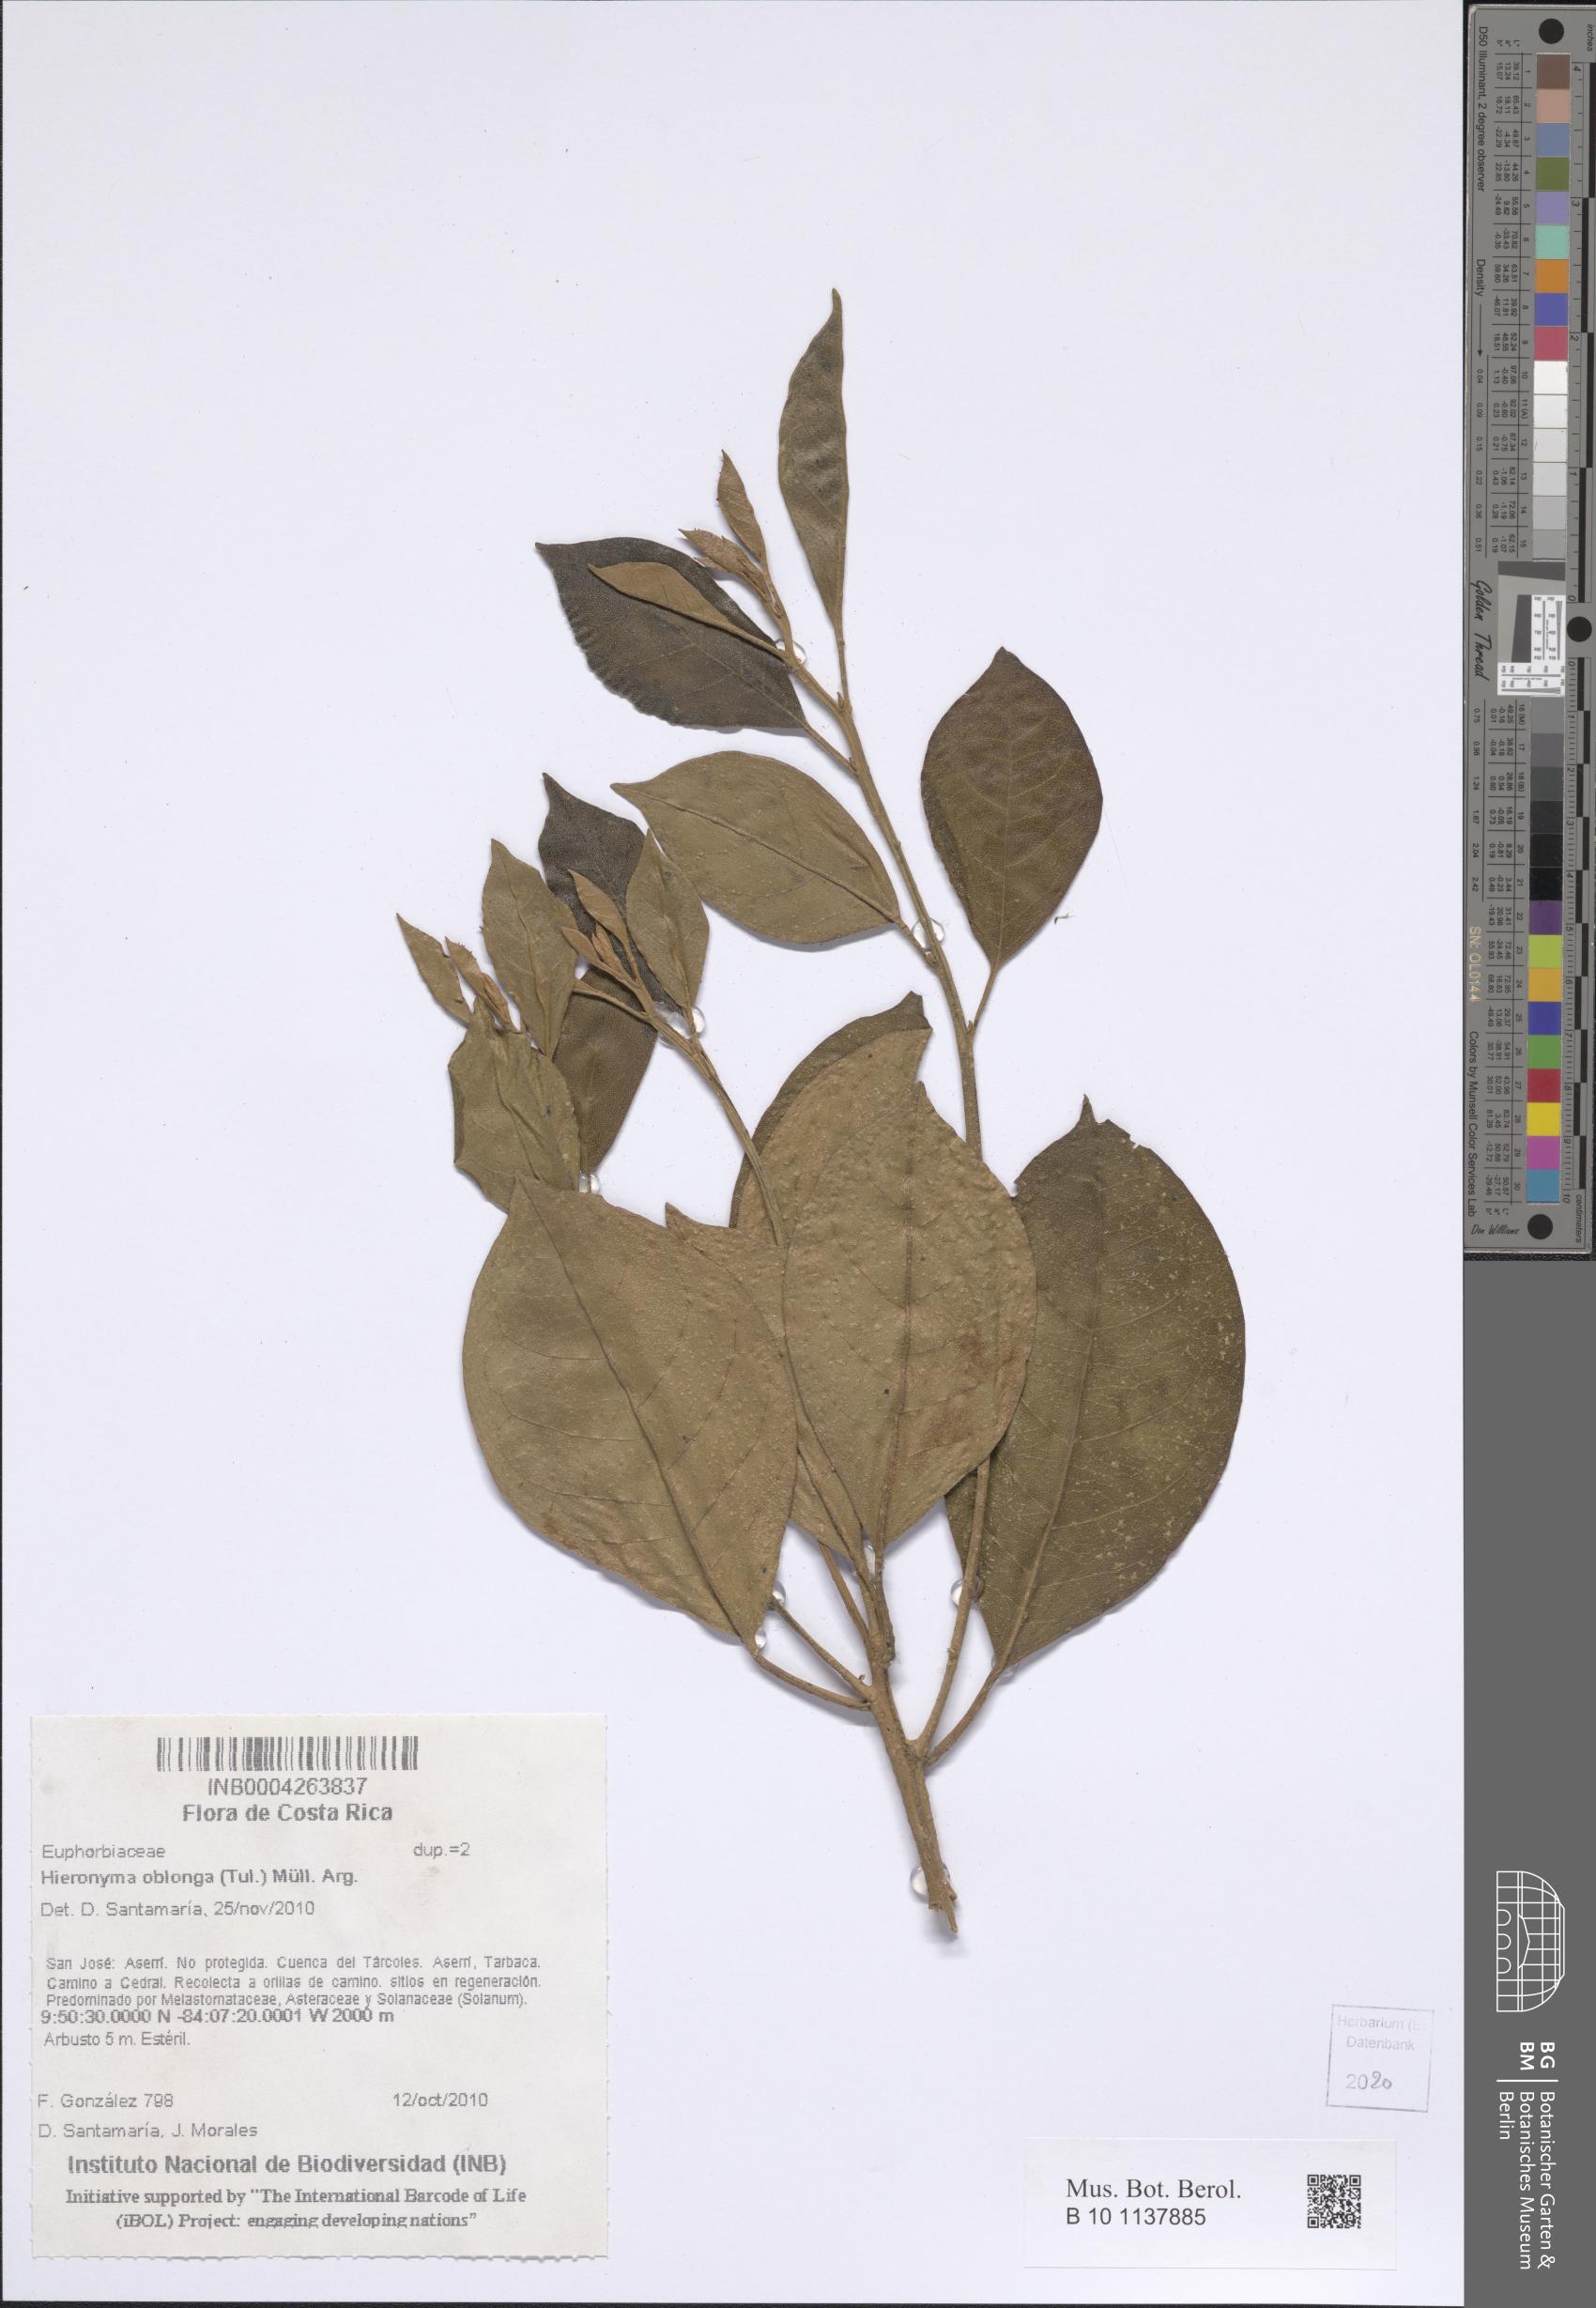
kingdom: Plantae
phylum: Tracheophyta
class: Magnoliopsida
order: Malpighiales
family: Phyllanthaceae
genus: Hieronyma
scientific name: Hieronyma oblonga
